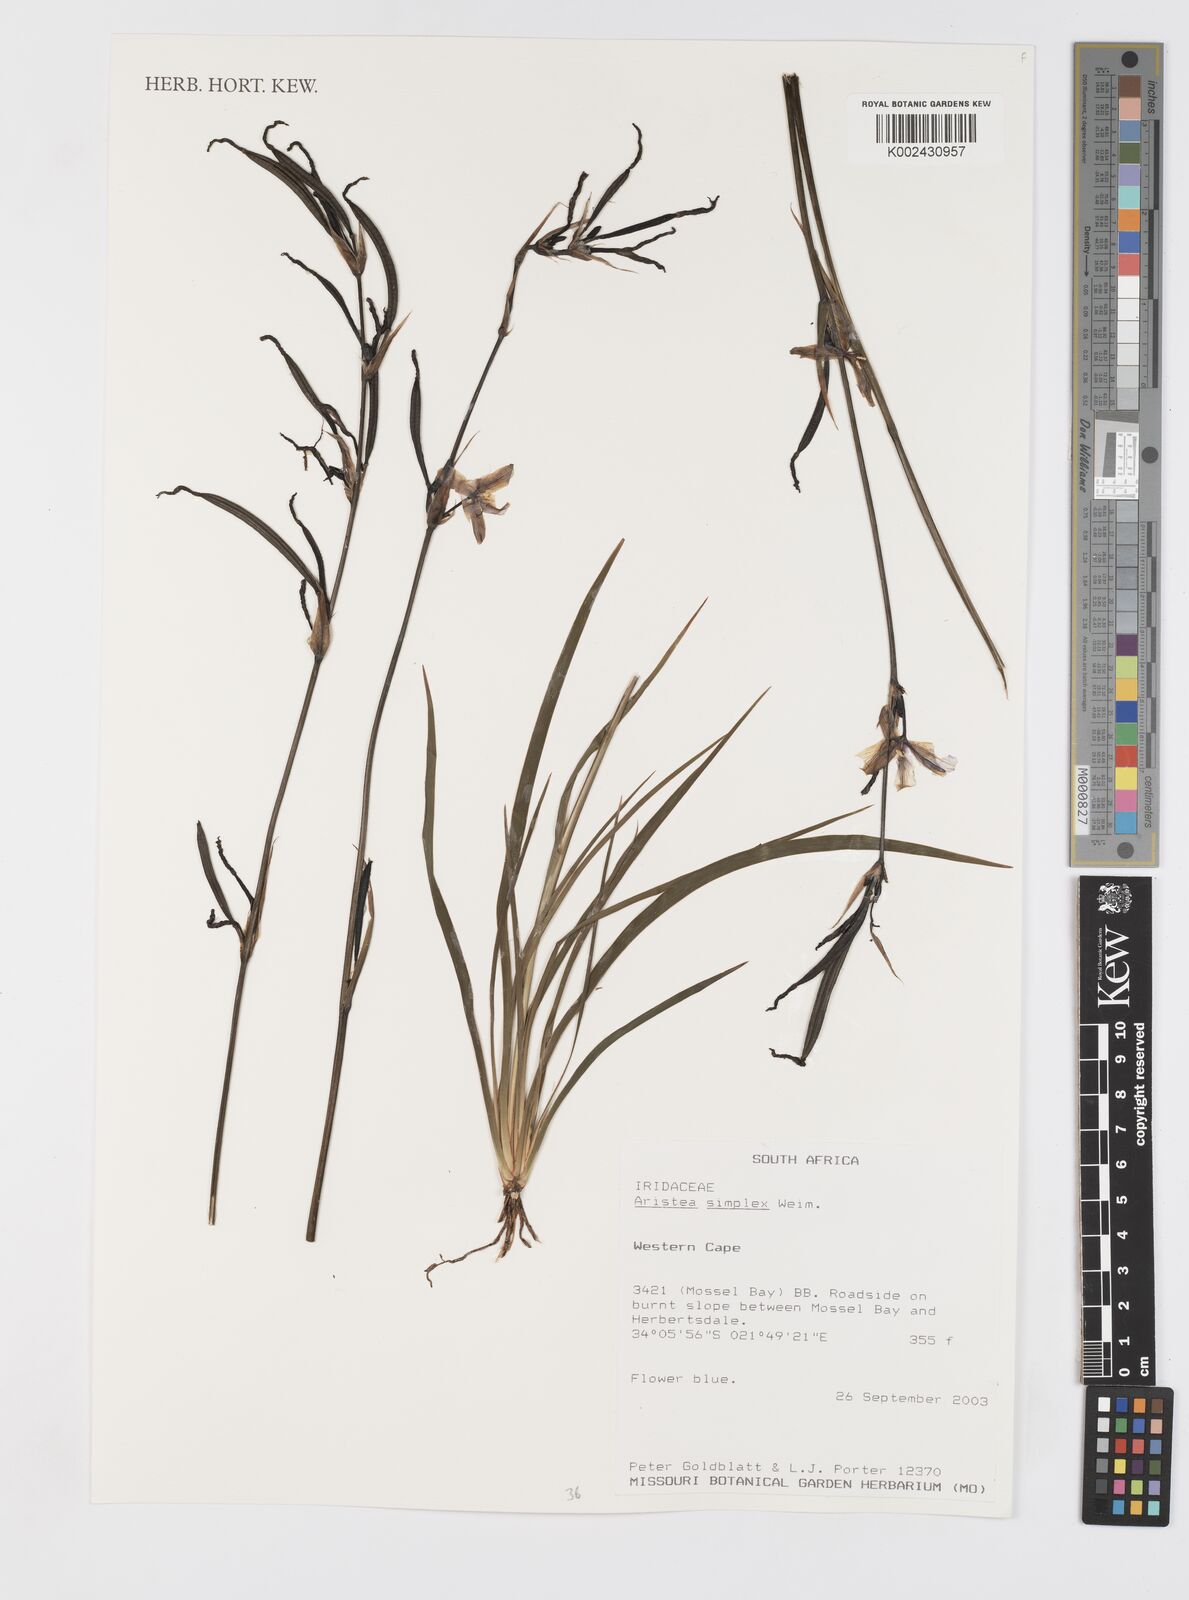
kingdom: Plantae
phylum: Tracheophyta
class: Liliopsida
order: Asparagales
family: Iridaceae
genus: Aristea
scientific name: Aristea simplex
